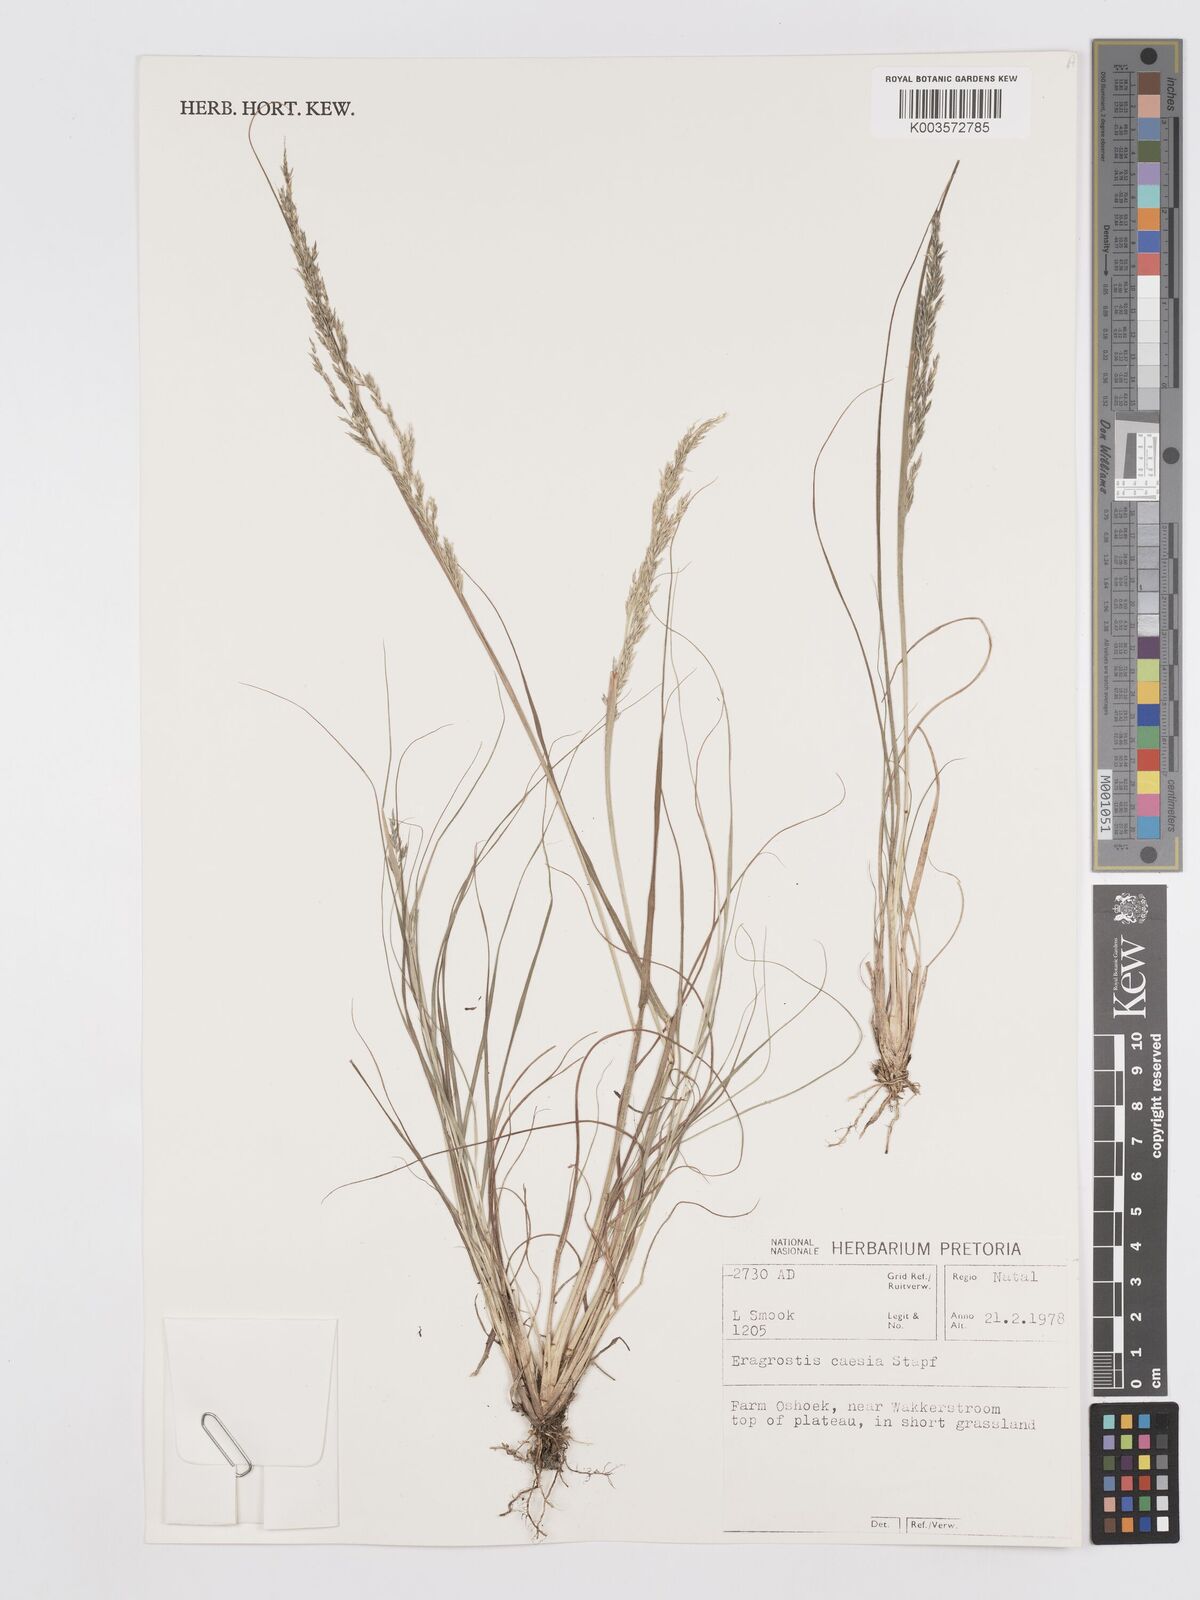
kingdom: Plantae
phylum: Tracheophyta
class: Liliopsida
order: Poales
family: Poaceae
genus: Eragrostis
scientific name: Eragrostis caesia
